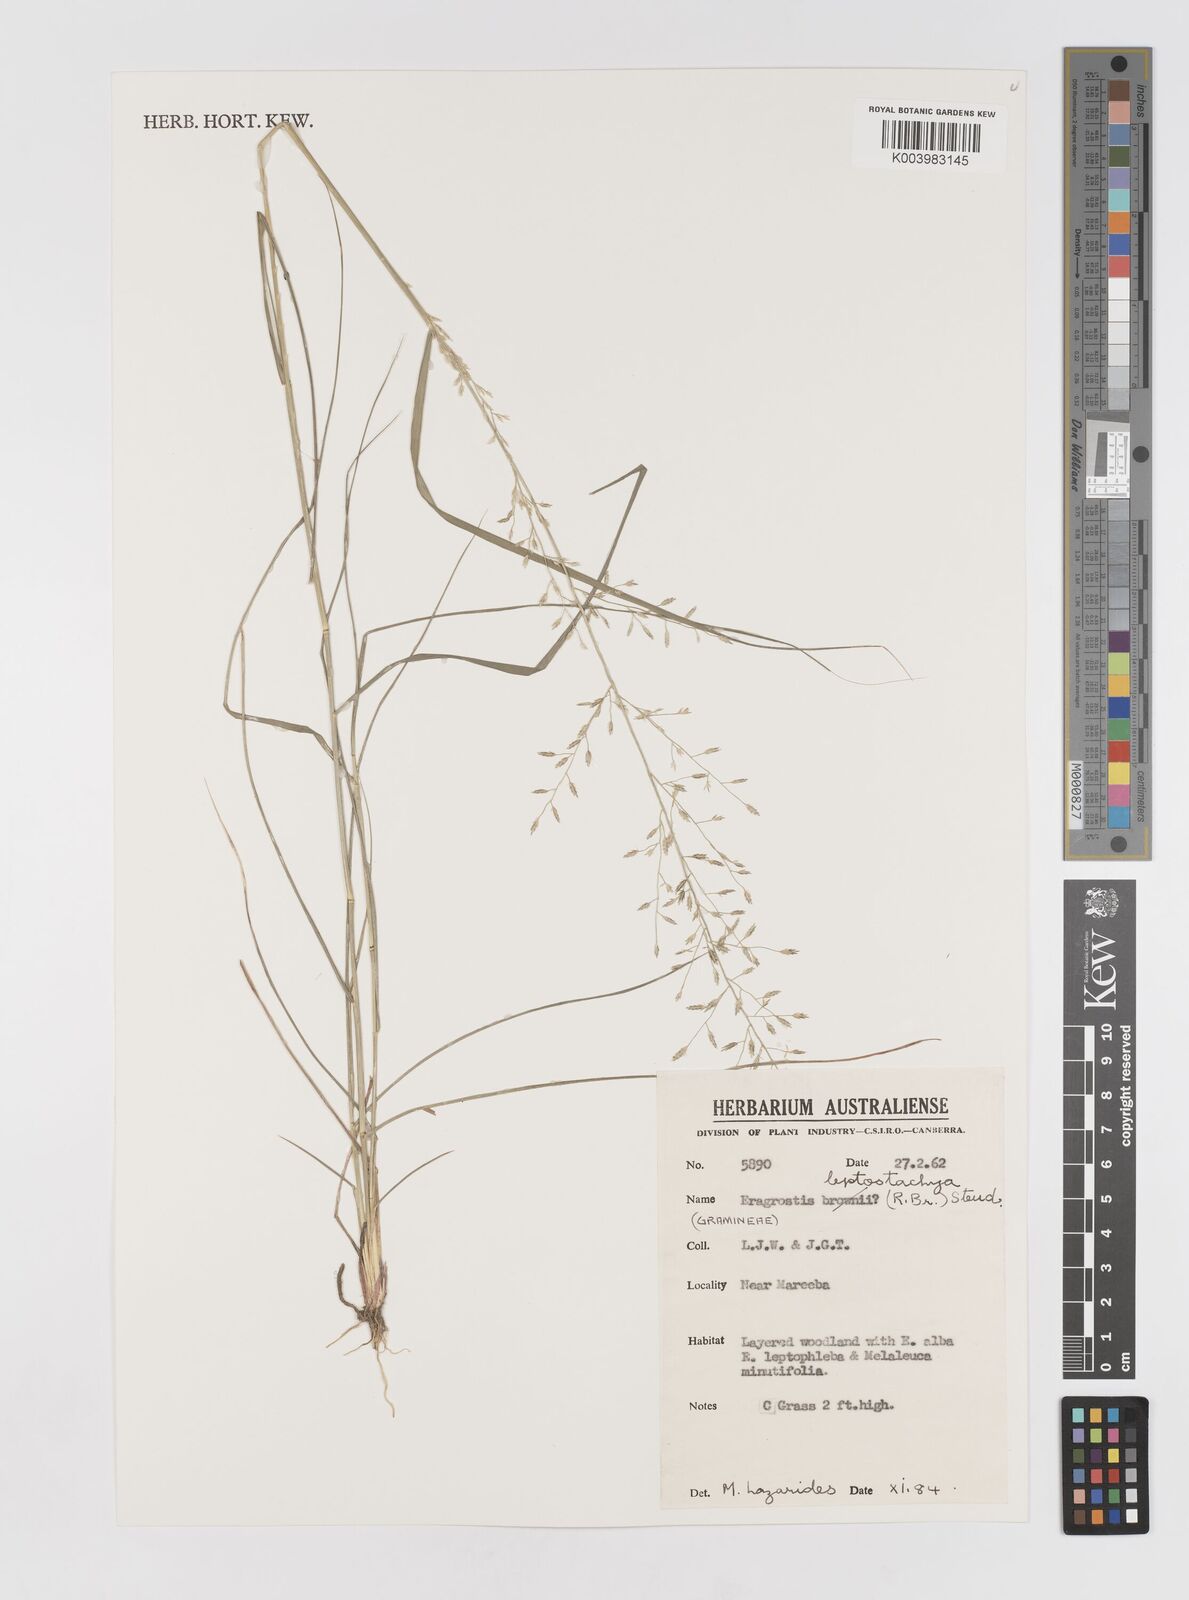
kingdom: Plantae
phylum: Tracheophyta
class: Liliopsida
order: Poales
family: Poaceae
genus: Eragrostis
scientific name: Eragrostis leptostachya
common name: Australian lovegrass
